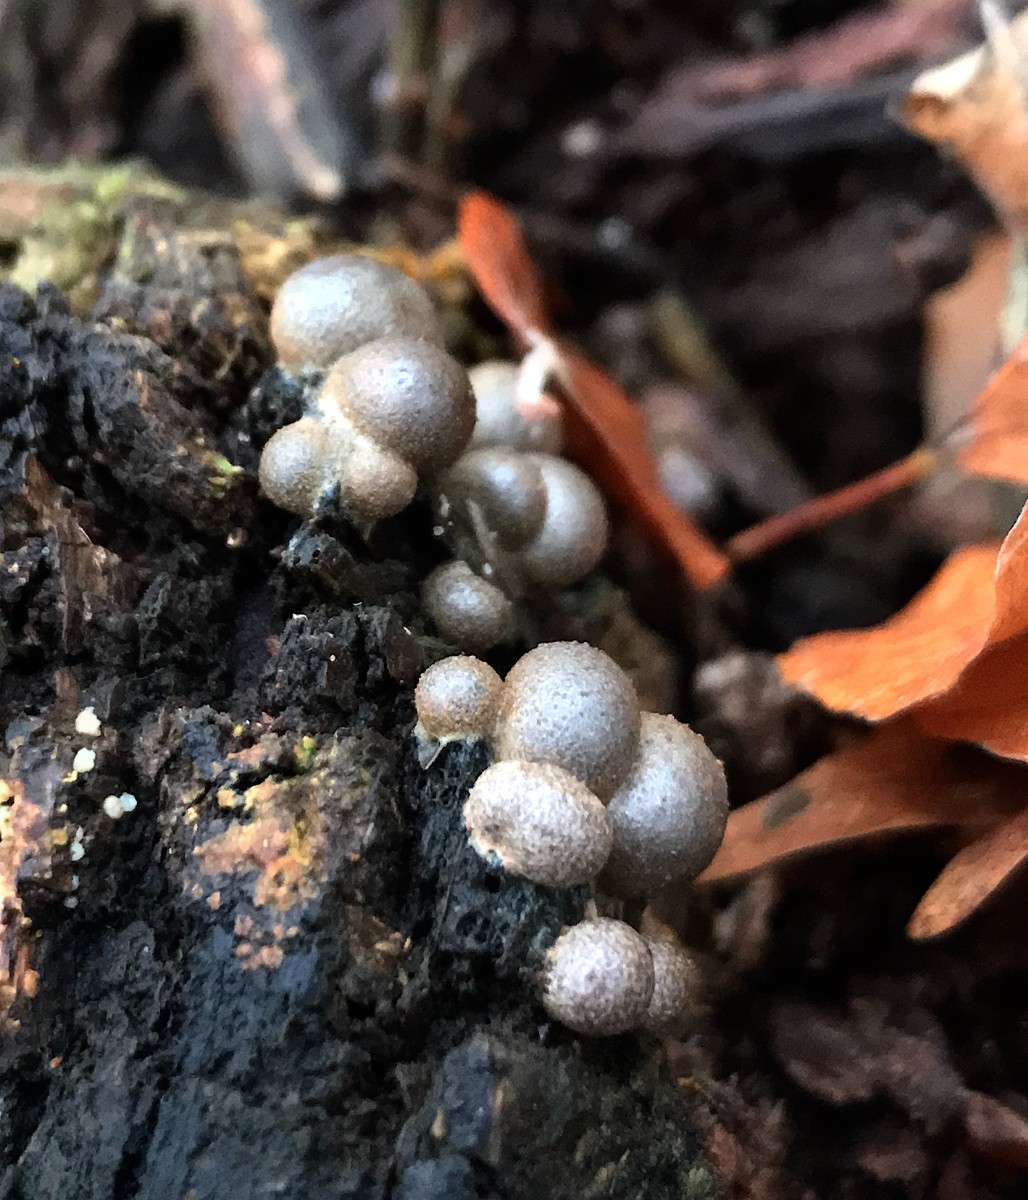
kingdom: Protozoa
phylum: Mycetozoa
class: Myxomycetes
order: Cribrariales
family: Tubiferaceae
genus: Lycogala
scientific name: Lycogala epidendrum
